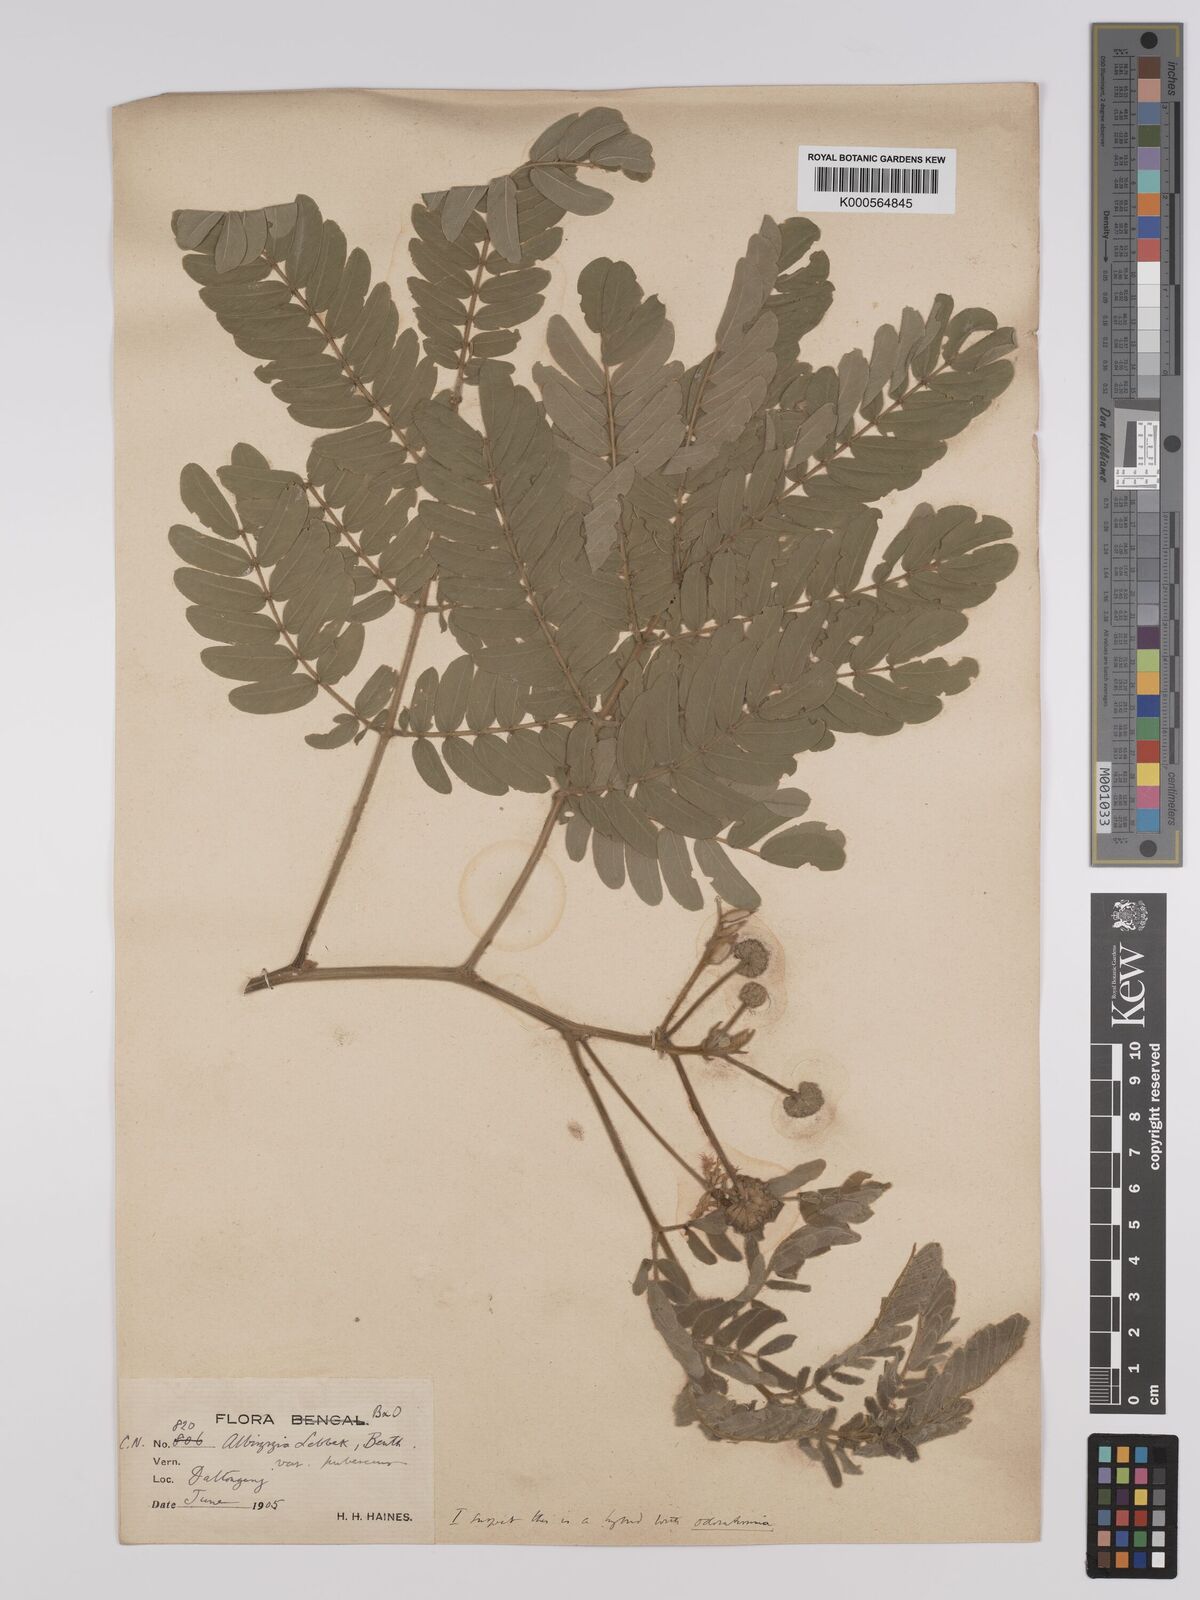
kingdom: Plantae
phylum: Tracheophyta
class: Magnoliopsida
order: Fabales
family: Fabaceae
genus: Albizia
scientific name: Albizia lebbeck
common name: Woman's tongue
